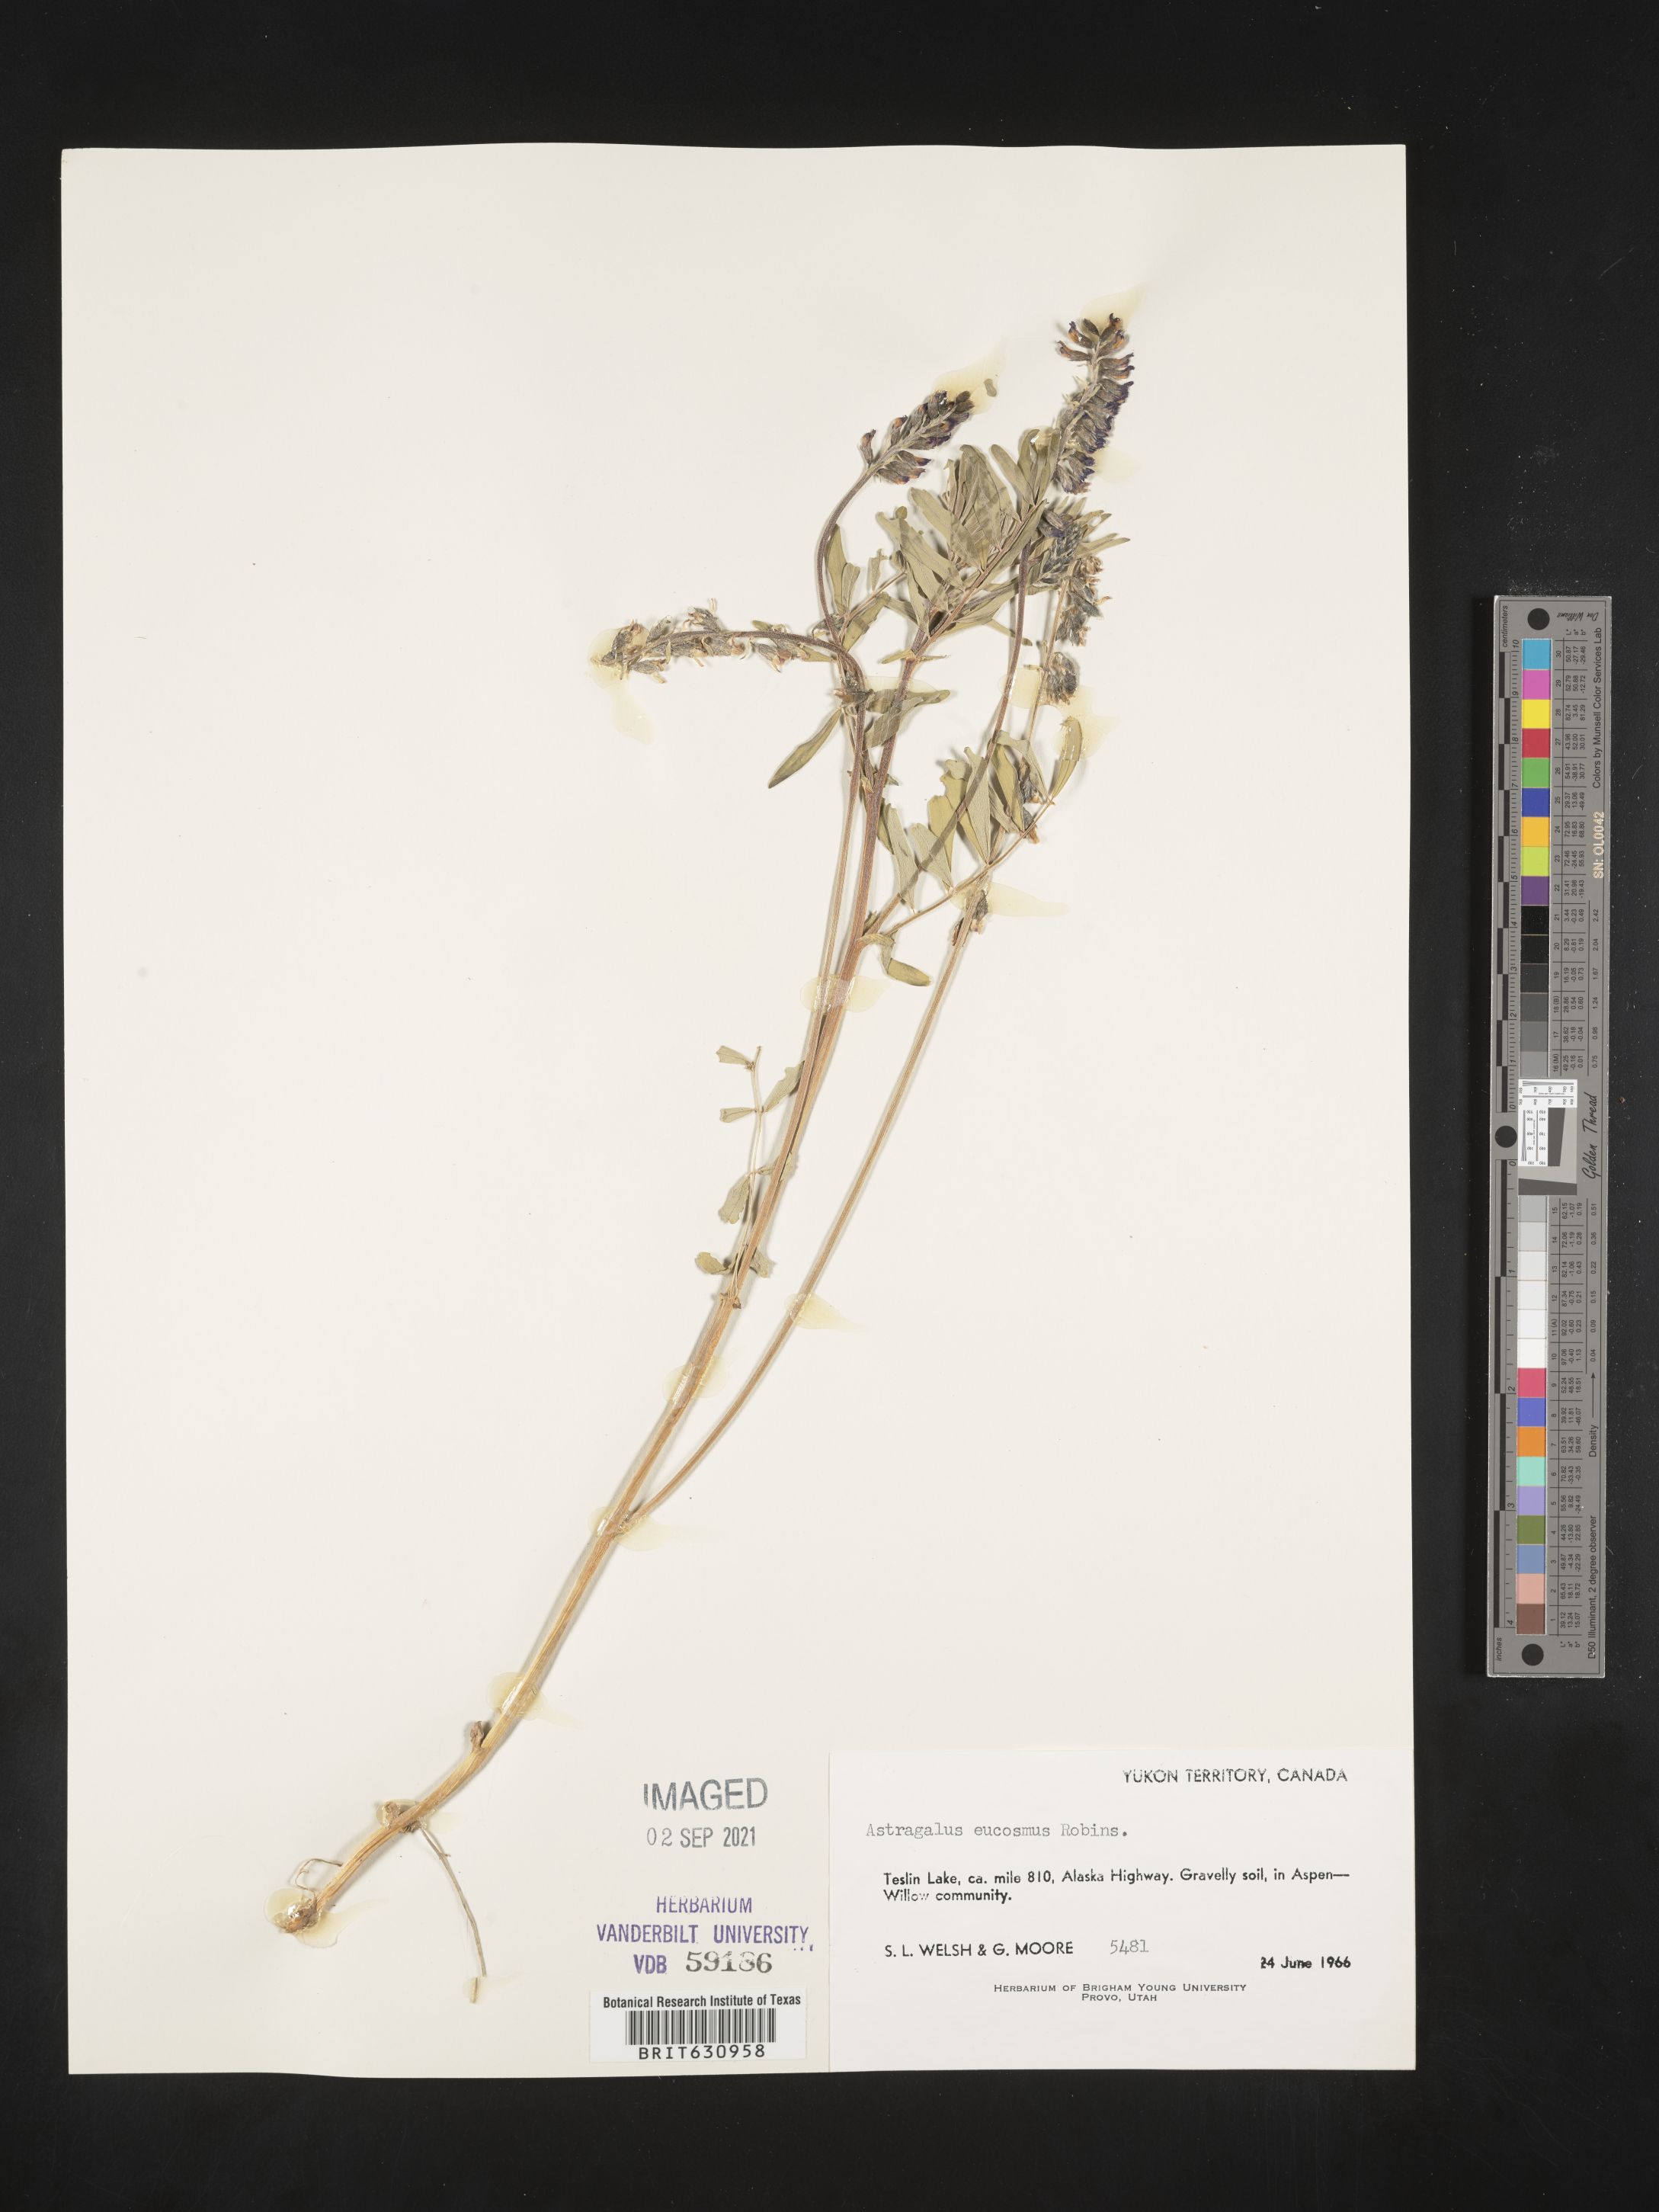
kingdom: Plantae
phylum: Tracheophyta
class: Magnoliopsida
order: Fabales
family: Fabaceae
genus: Astragalus
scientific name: Astragalus
